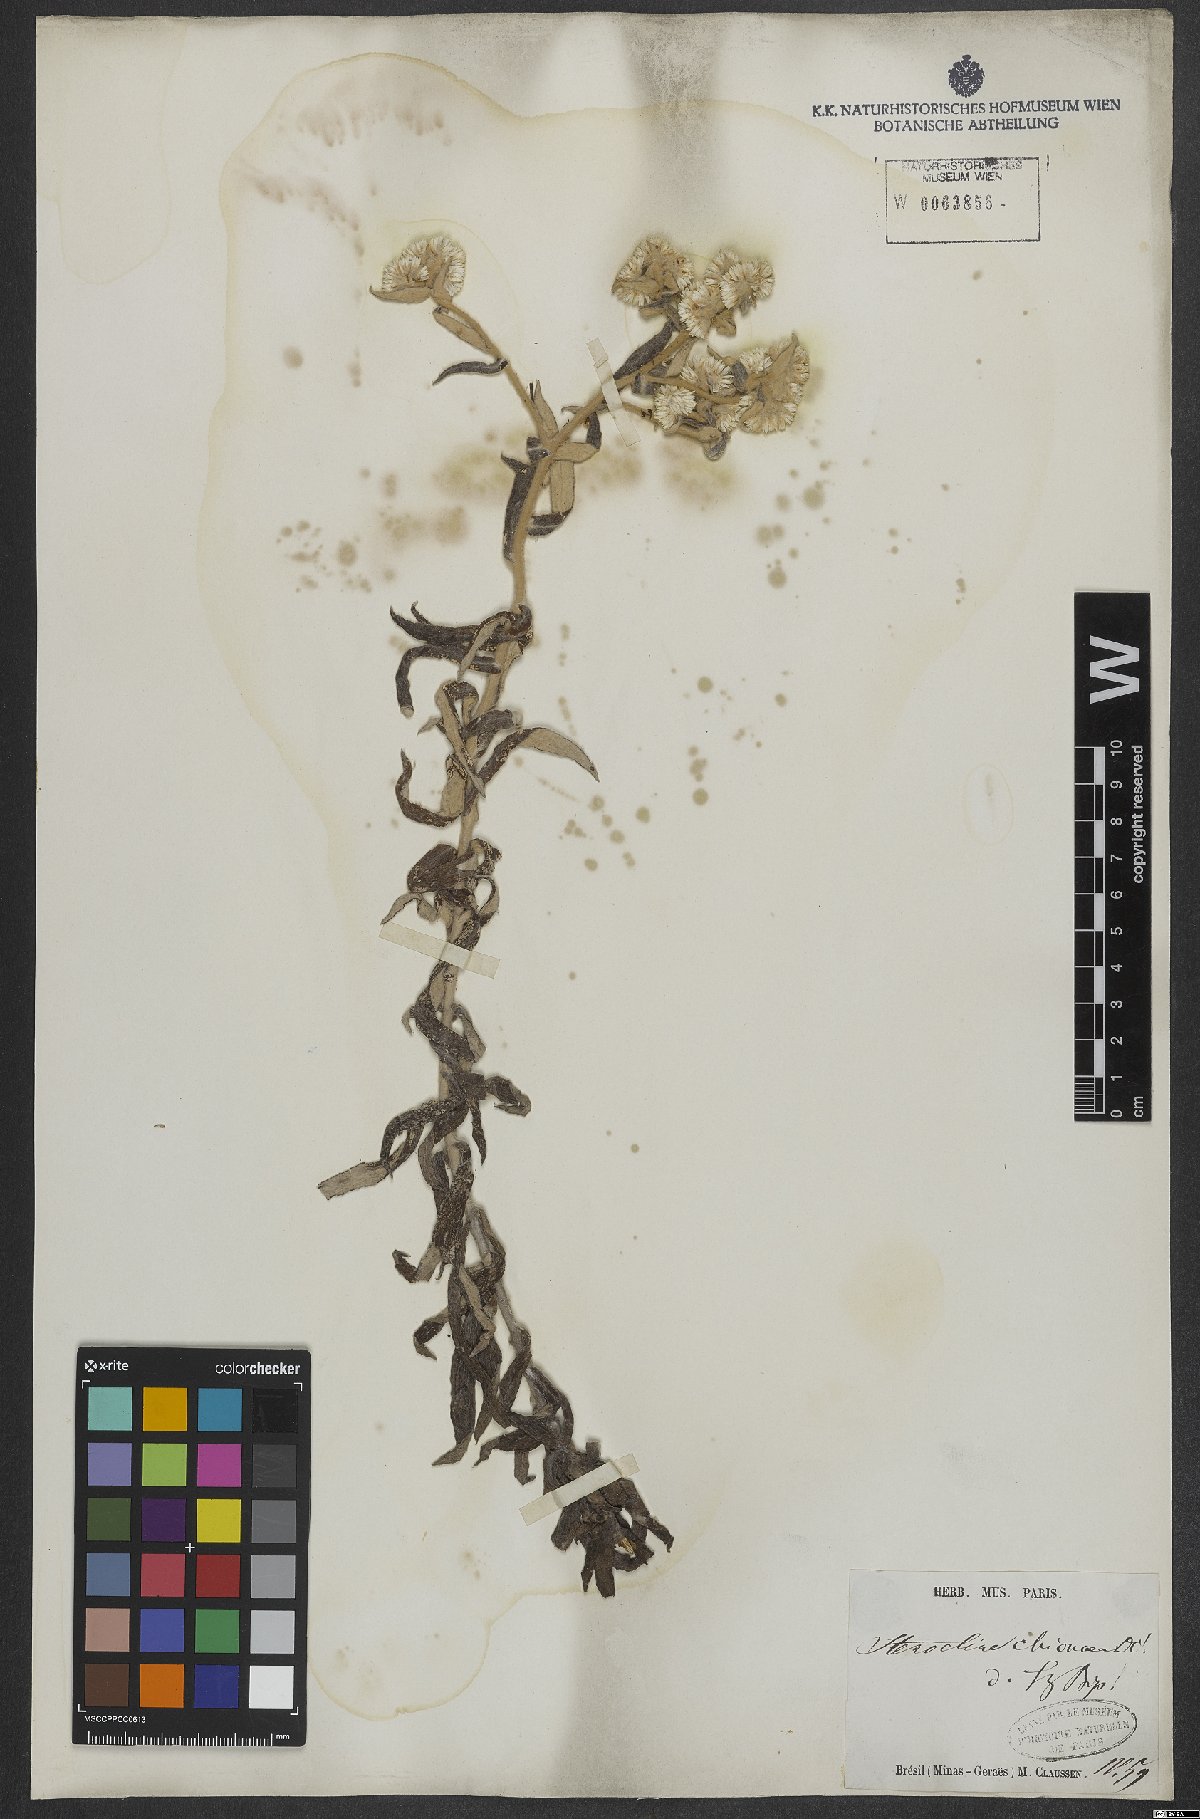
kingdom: Plantae
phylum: Tracheophyta
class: Magnoliopsida
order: Asterales
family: Asteraceae
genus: Achyrocline
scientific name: Achyrocline chionaea
